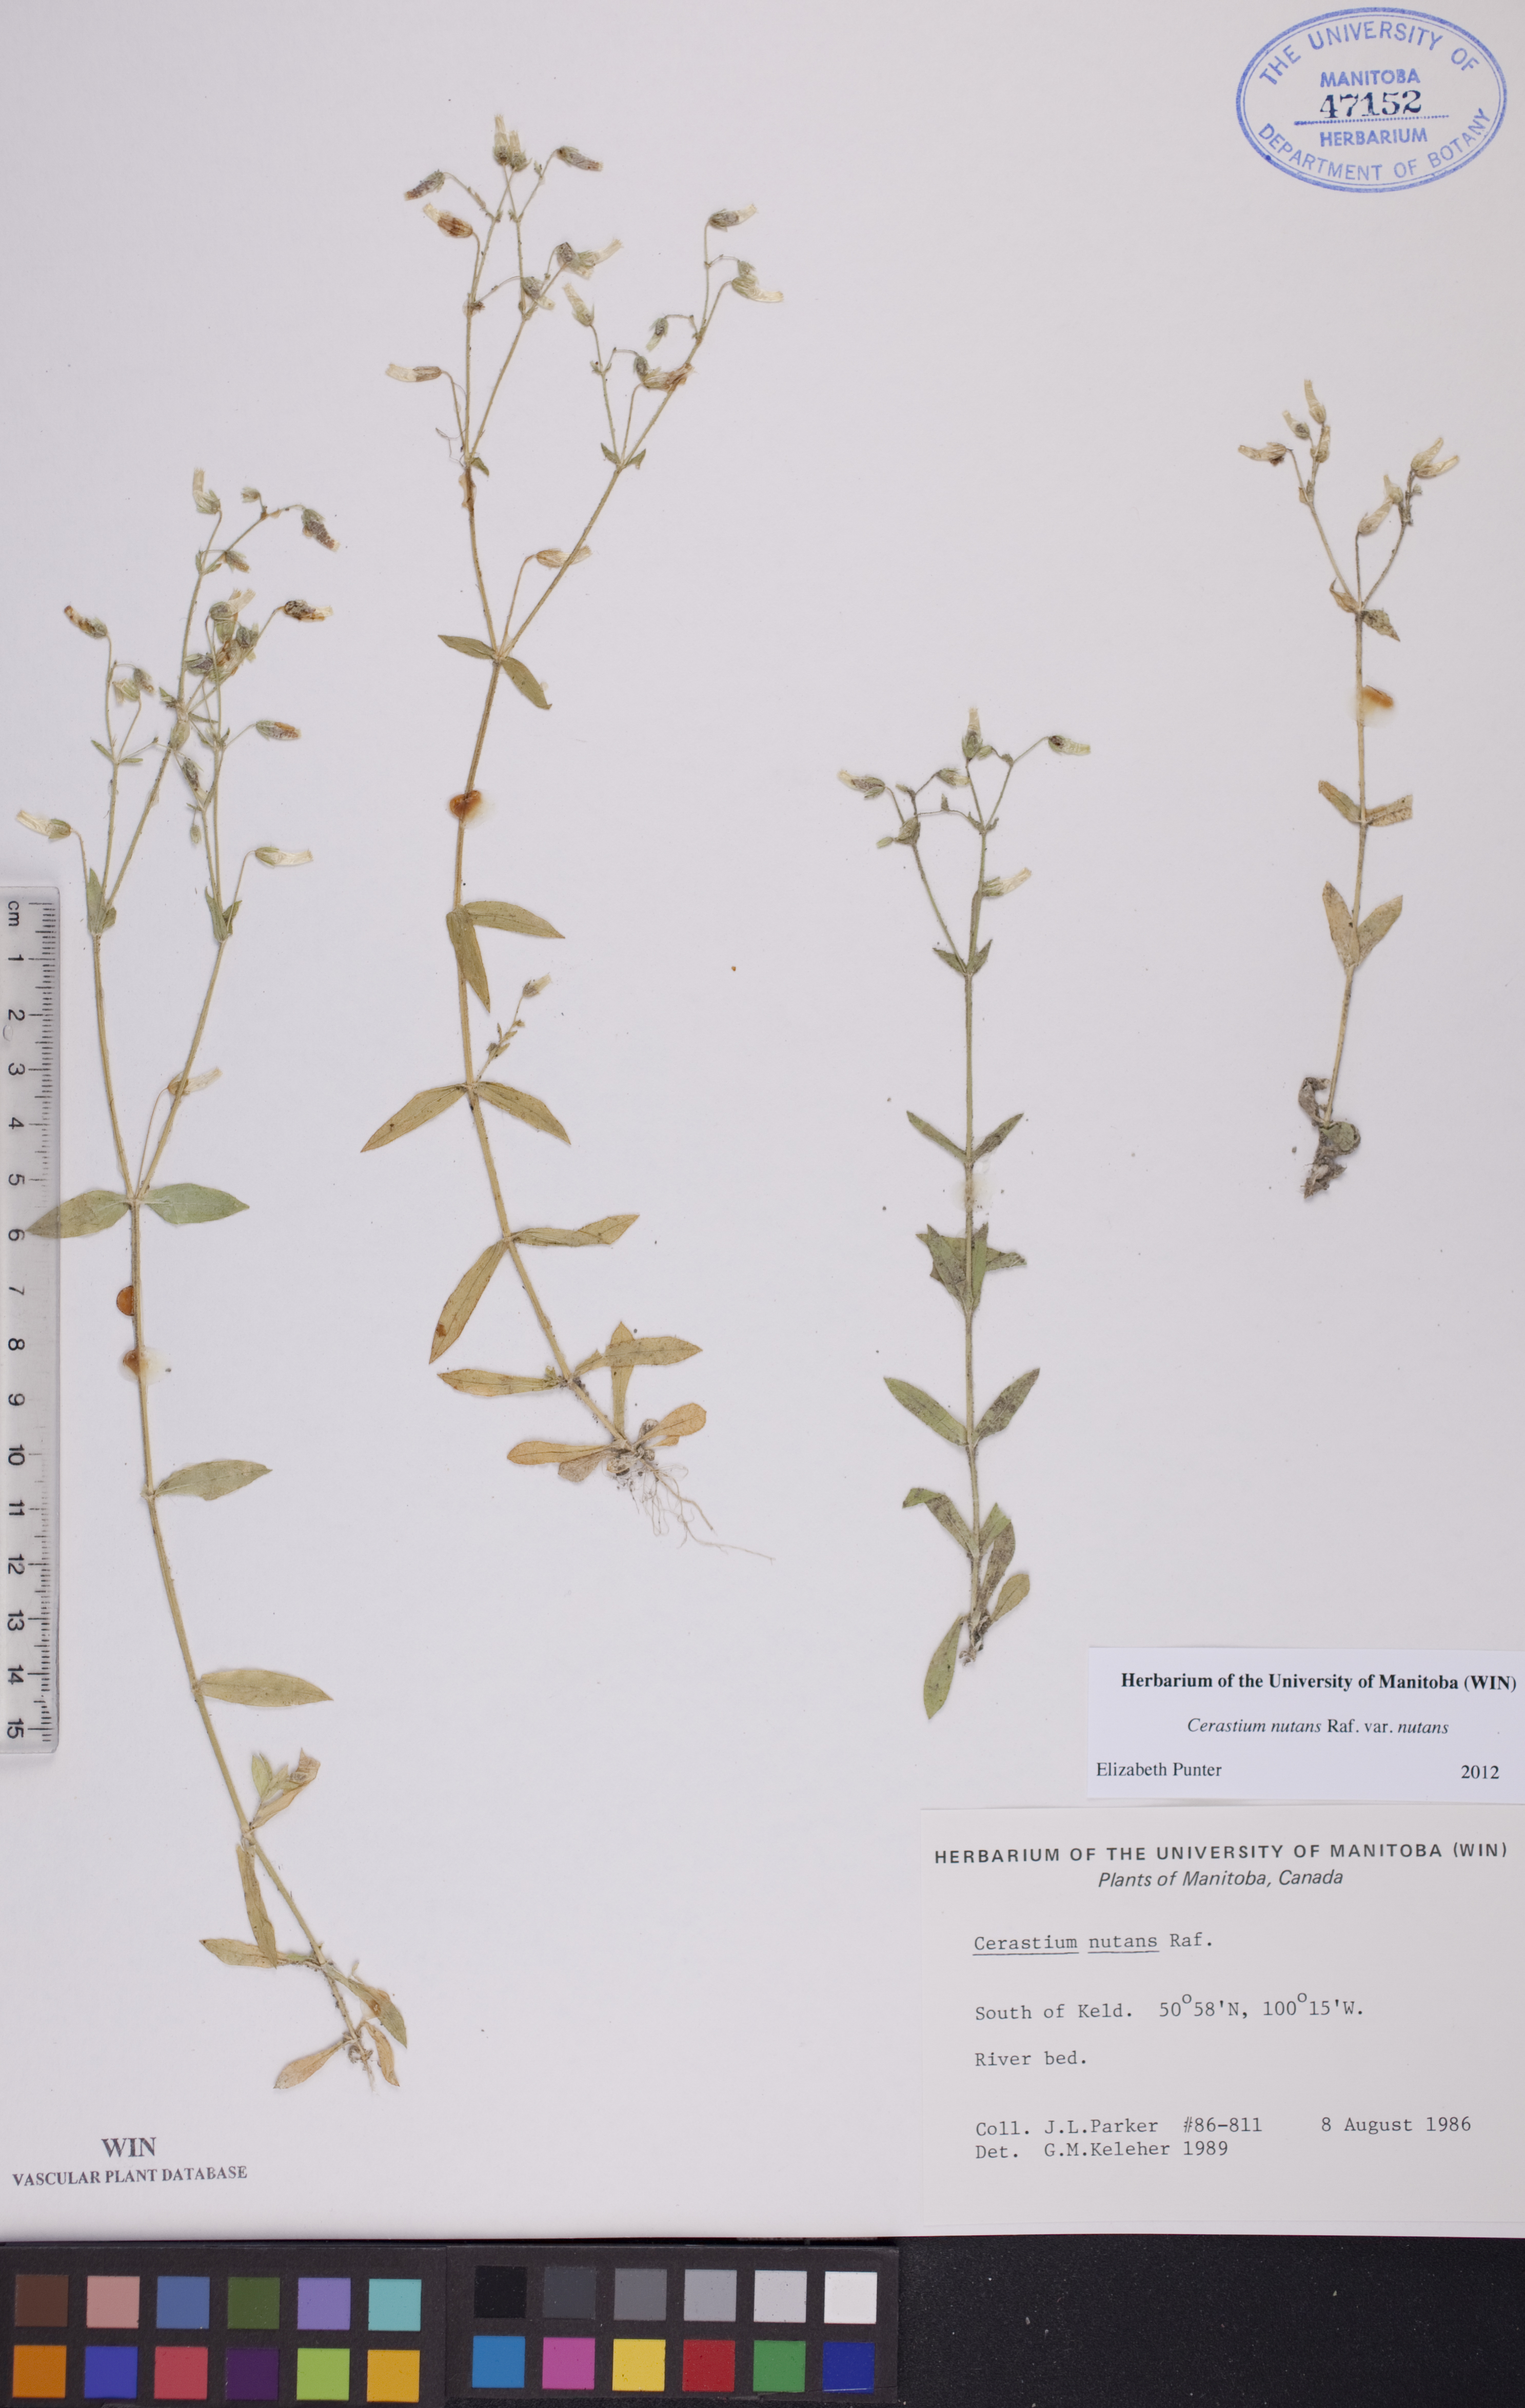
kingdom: Plantae
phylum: Tracheophyta
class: Magnoliopsida
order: Caryophyllales
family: Caryophyllaceae
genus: Cerastium
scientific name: Cerastium nutans
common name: Long-stalked chickweed
